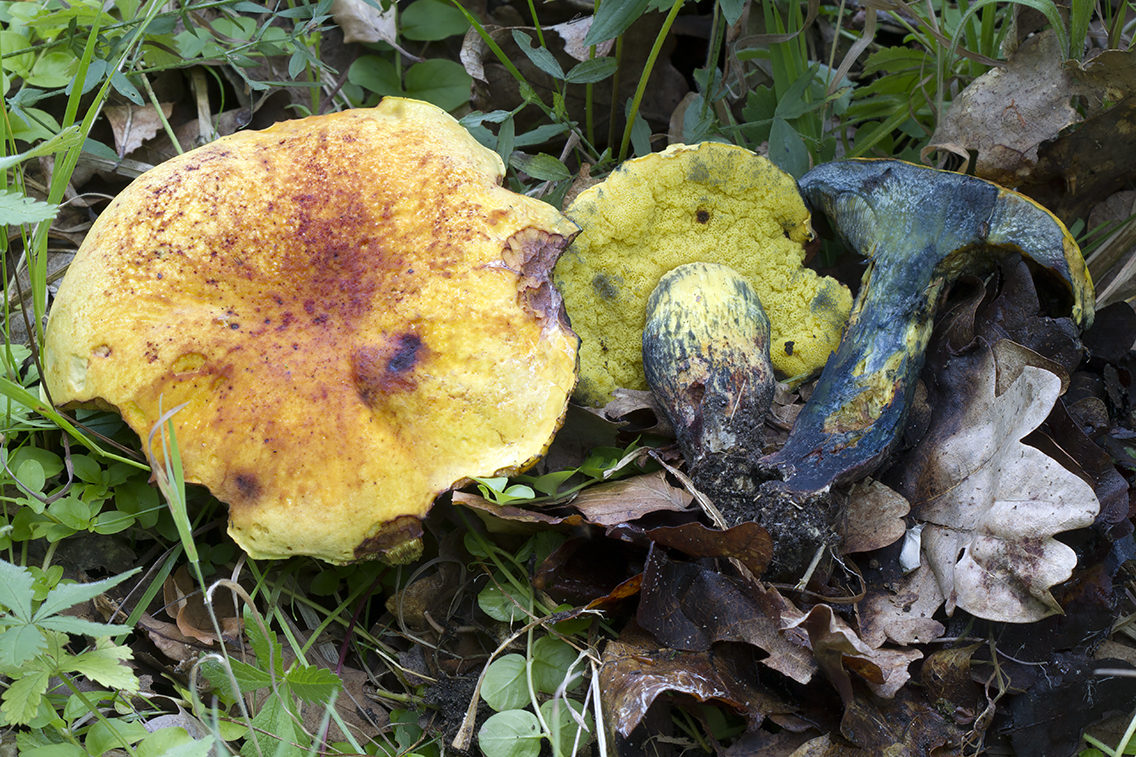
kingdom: Fungi
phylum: Basidiomycota
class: Agaricomycetes
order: Boletales
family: Boletaceae
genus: Neoboletus
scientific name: Neoboletus praestigiator
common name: gul indigorørhat
